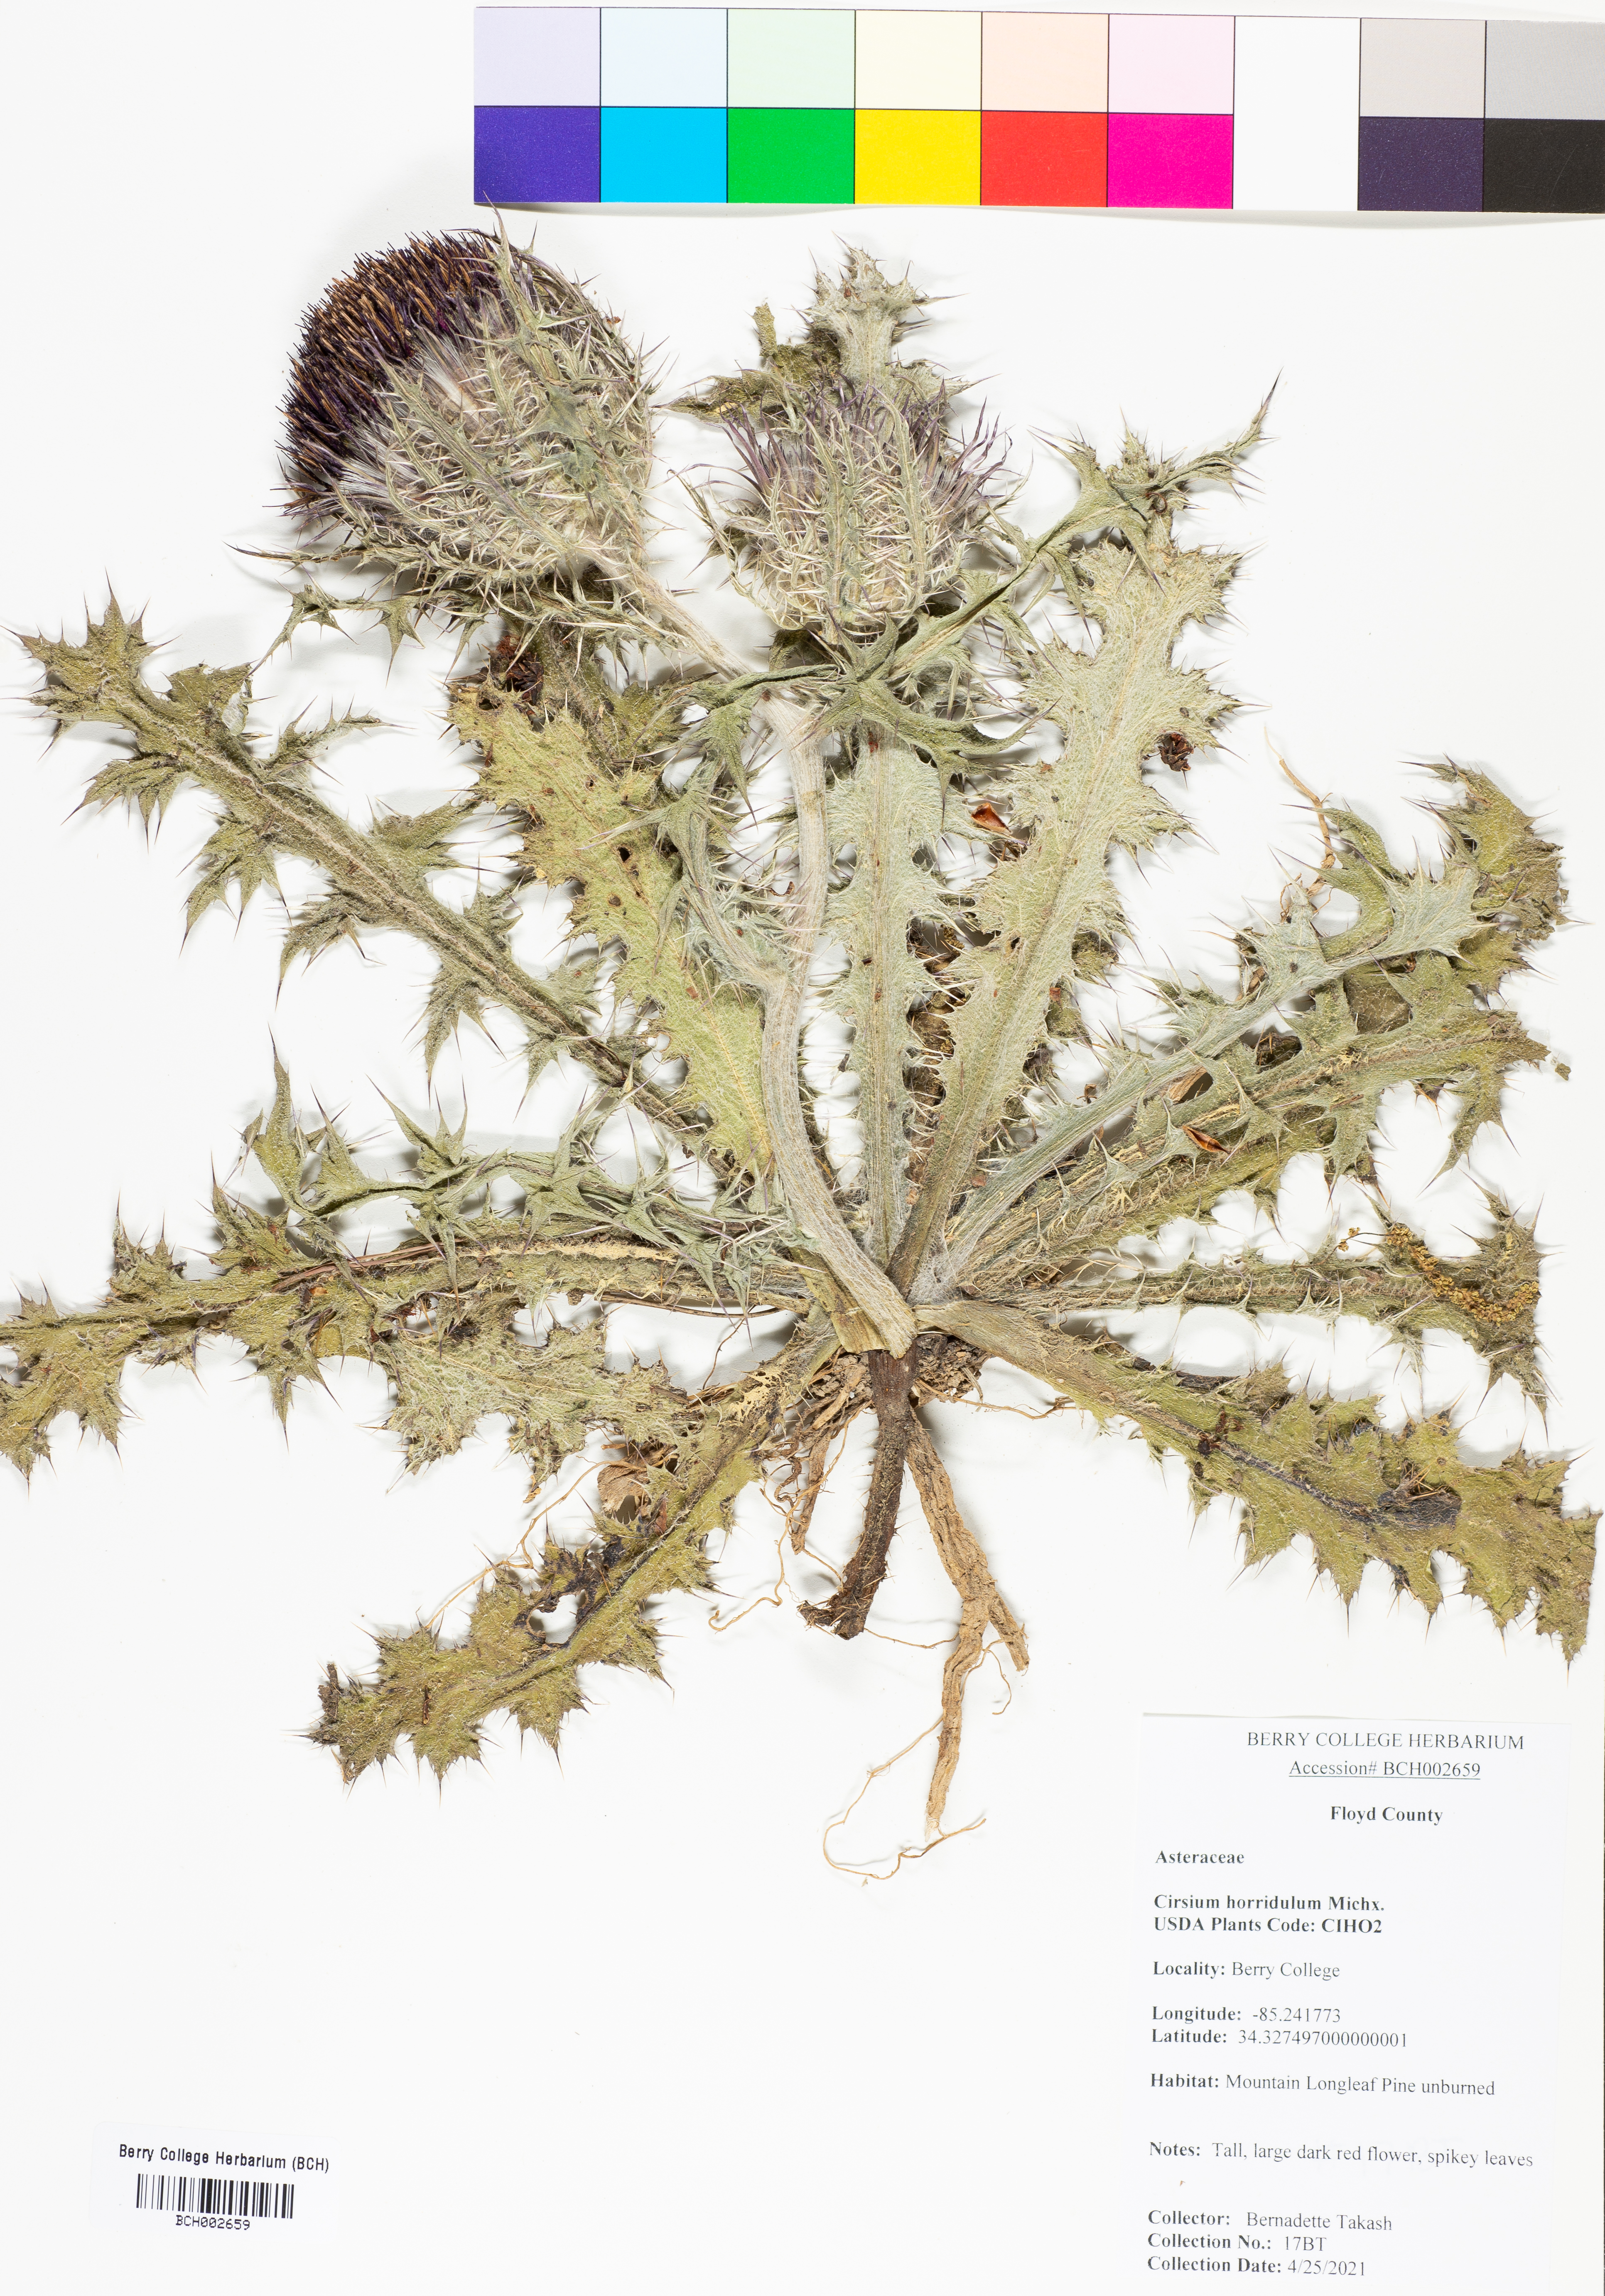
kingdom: Plantae
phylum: Tracheophyta
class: Magnoliopsida
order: Asterales
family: Asteraceae
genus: Cirsium
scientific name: Cirsium horridulum
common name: Bristly thistle
